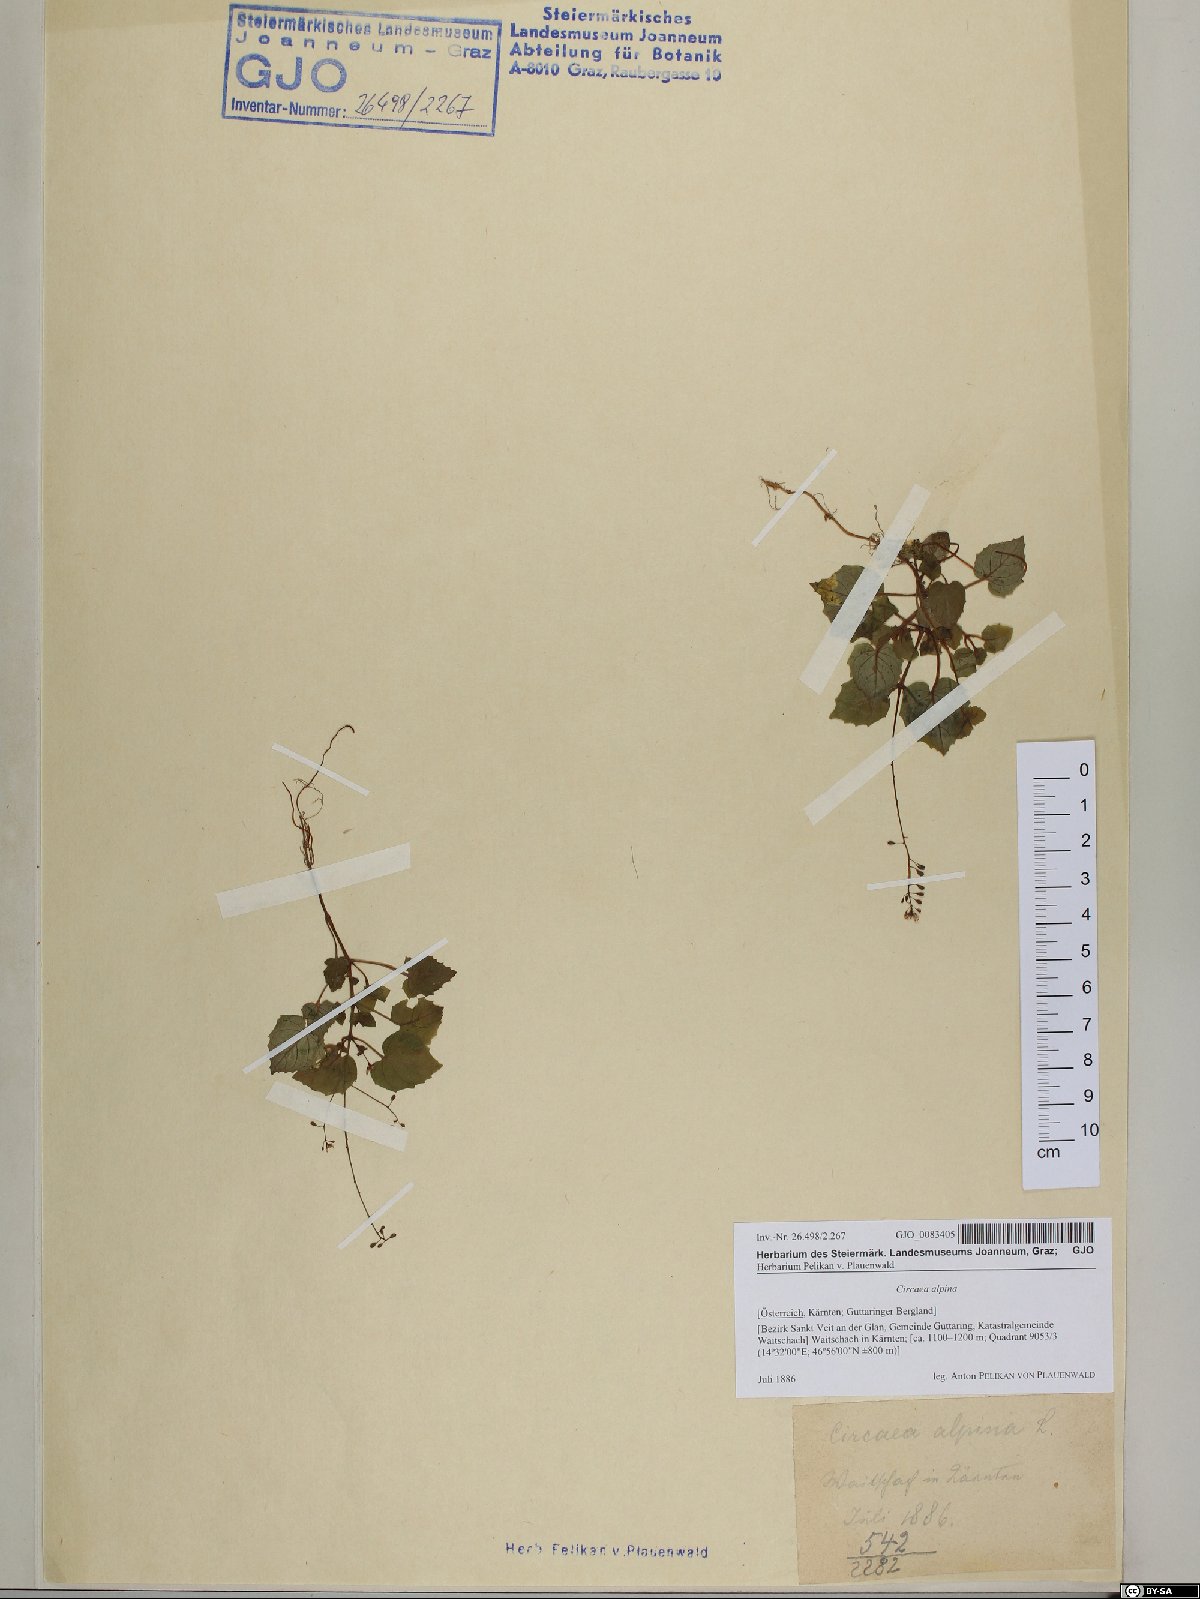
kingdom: Plantae
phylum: Tracheophyta
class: Magnoliopsida
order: Myrtales
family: Onagraceae
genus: Circaea
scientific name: Circaea alpina
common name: Alpine enchanter's-nightshade
